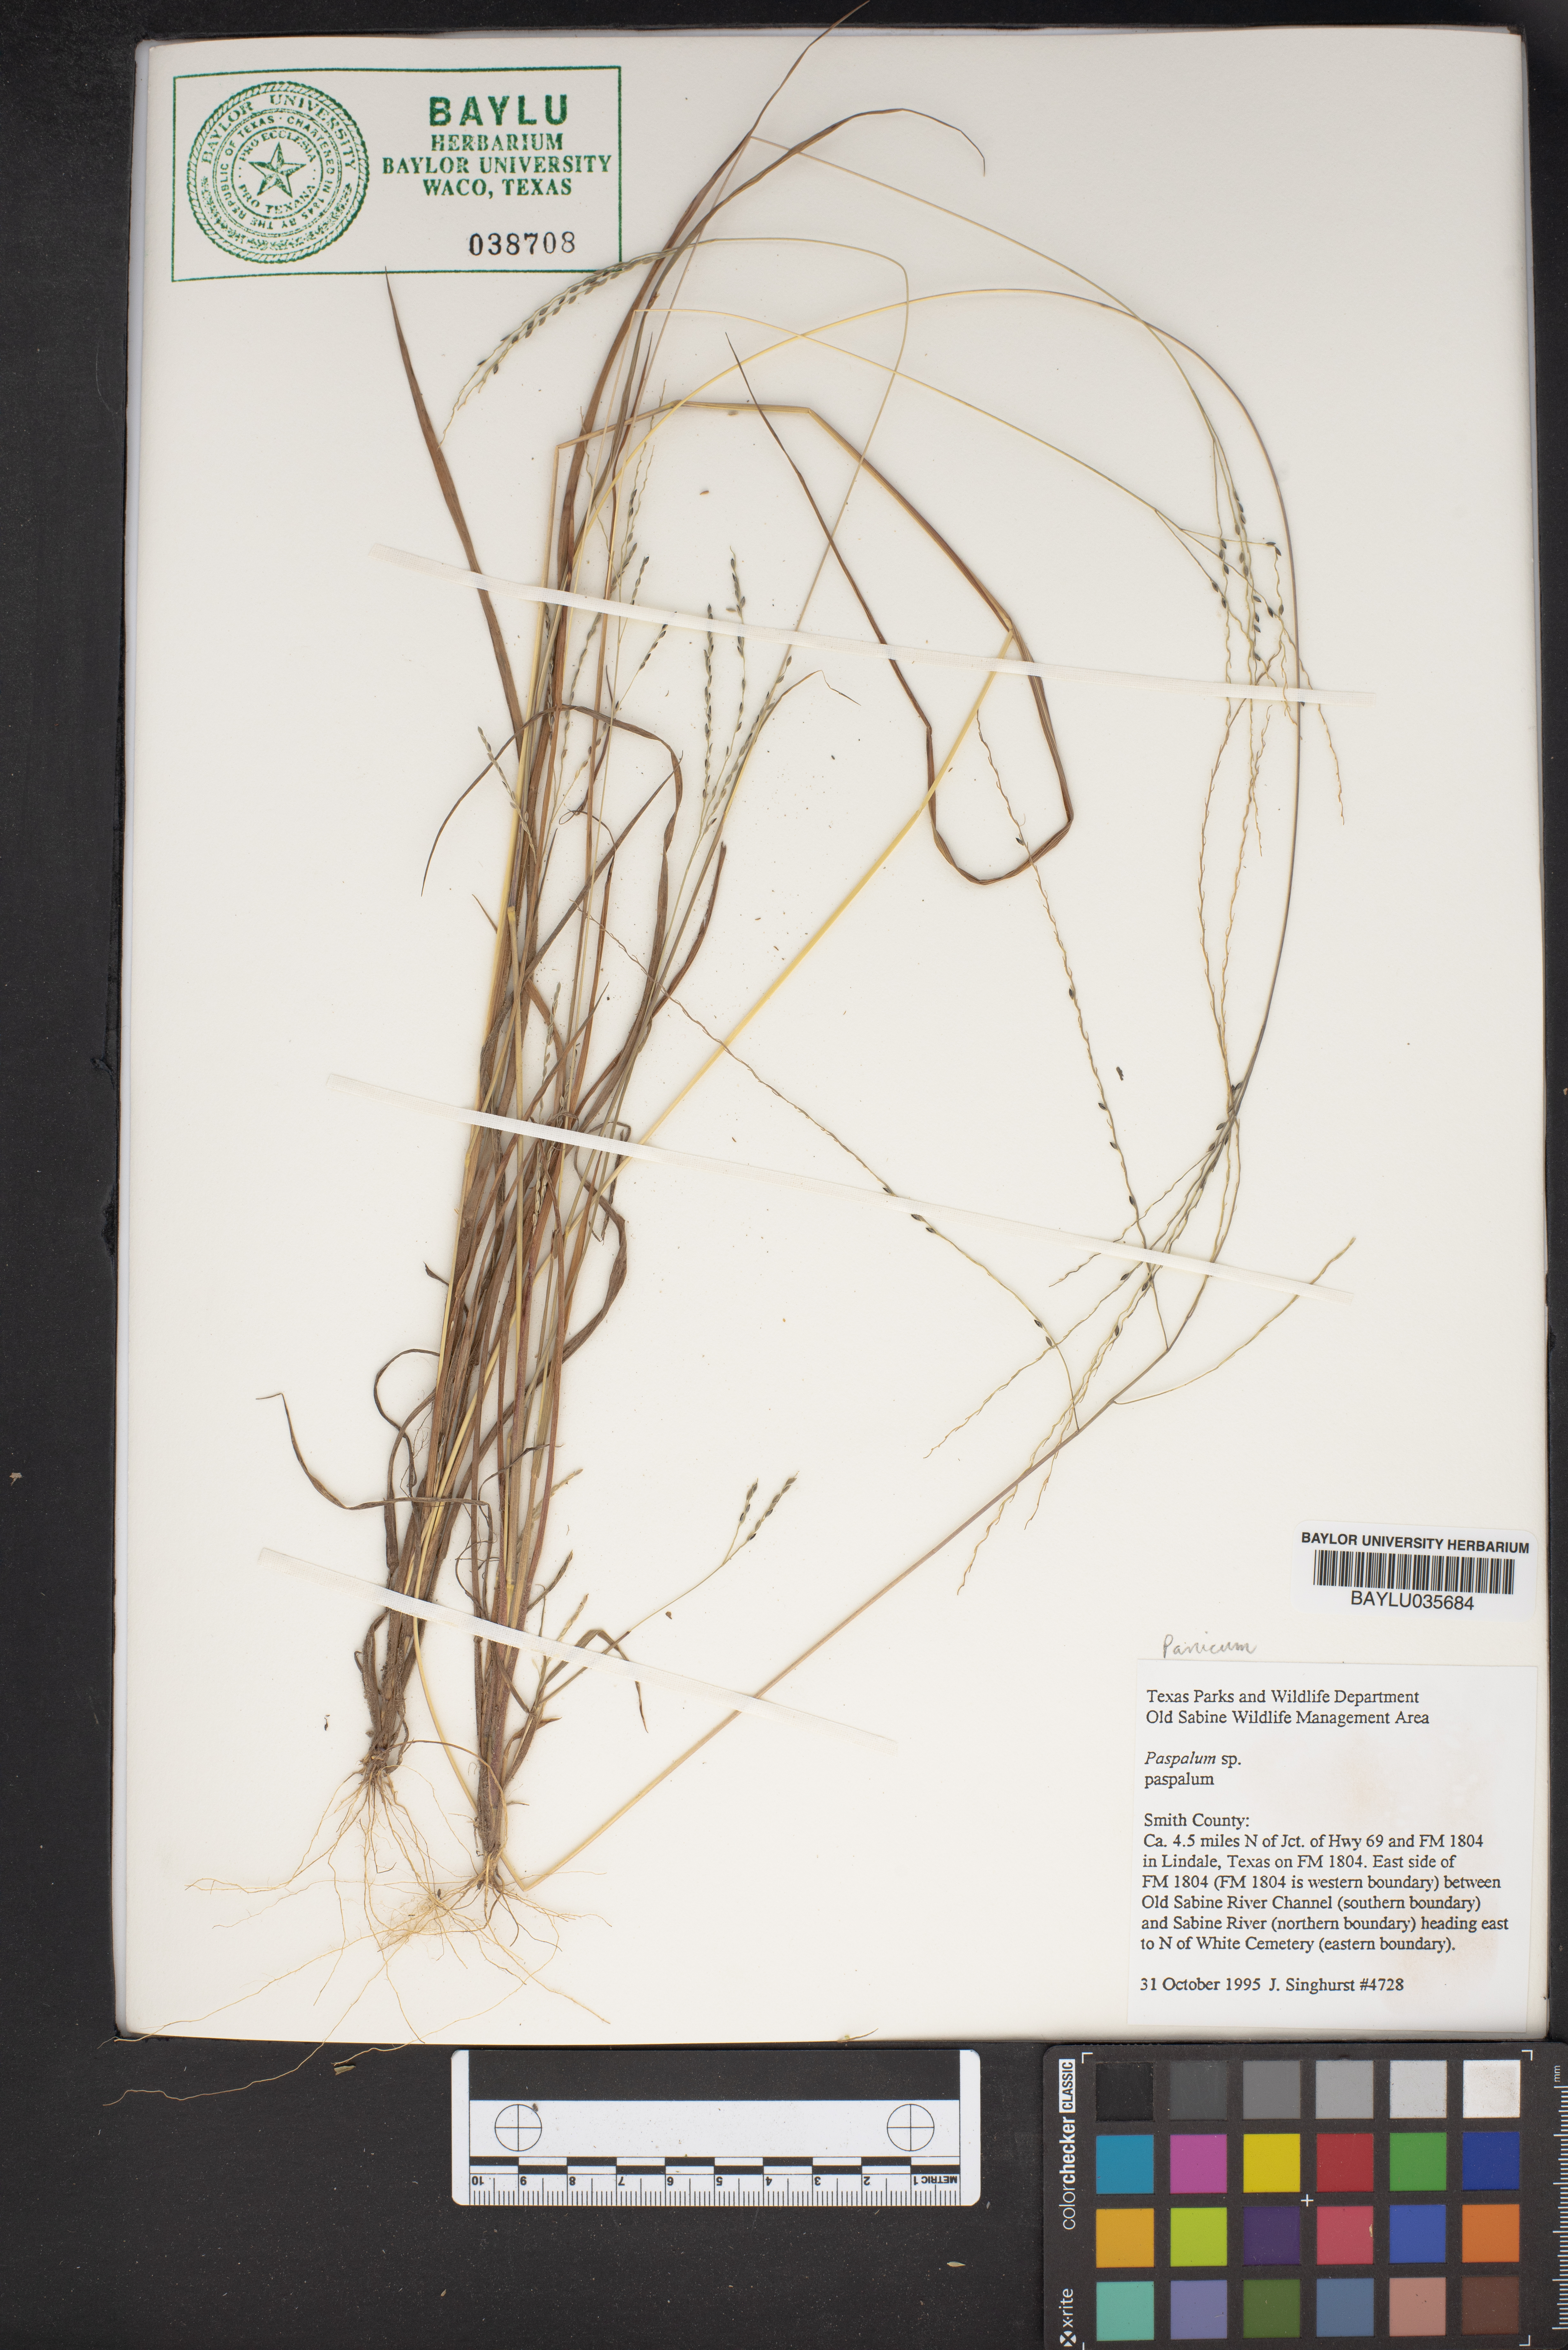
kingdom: Plantae
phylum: Tracheophyta
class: Liliopsida
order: Poales
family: Poaceae
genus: Paspalum
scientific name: Paspalum
